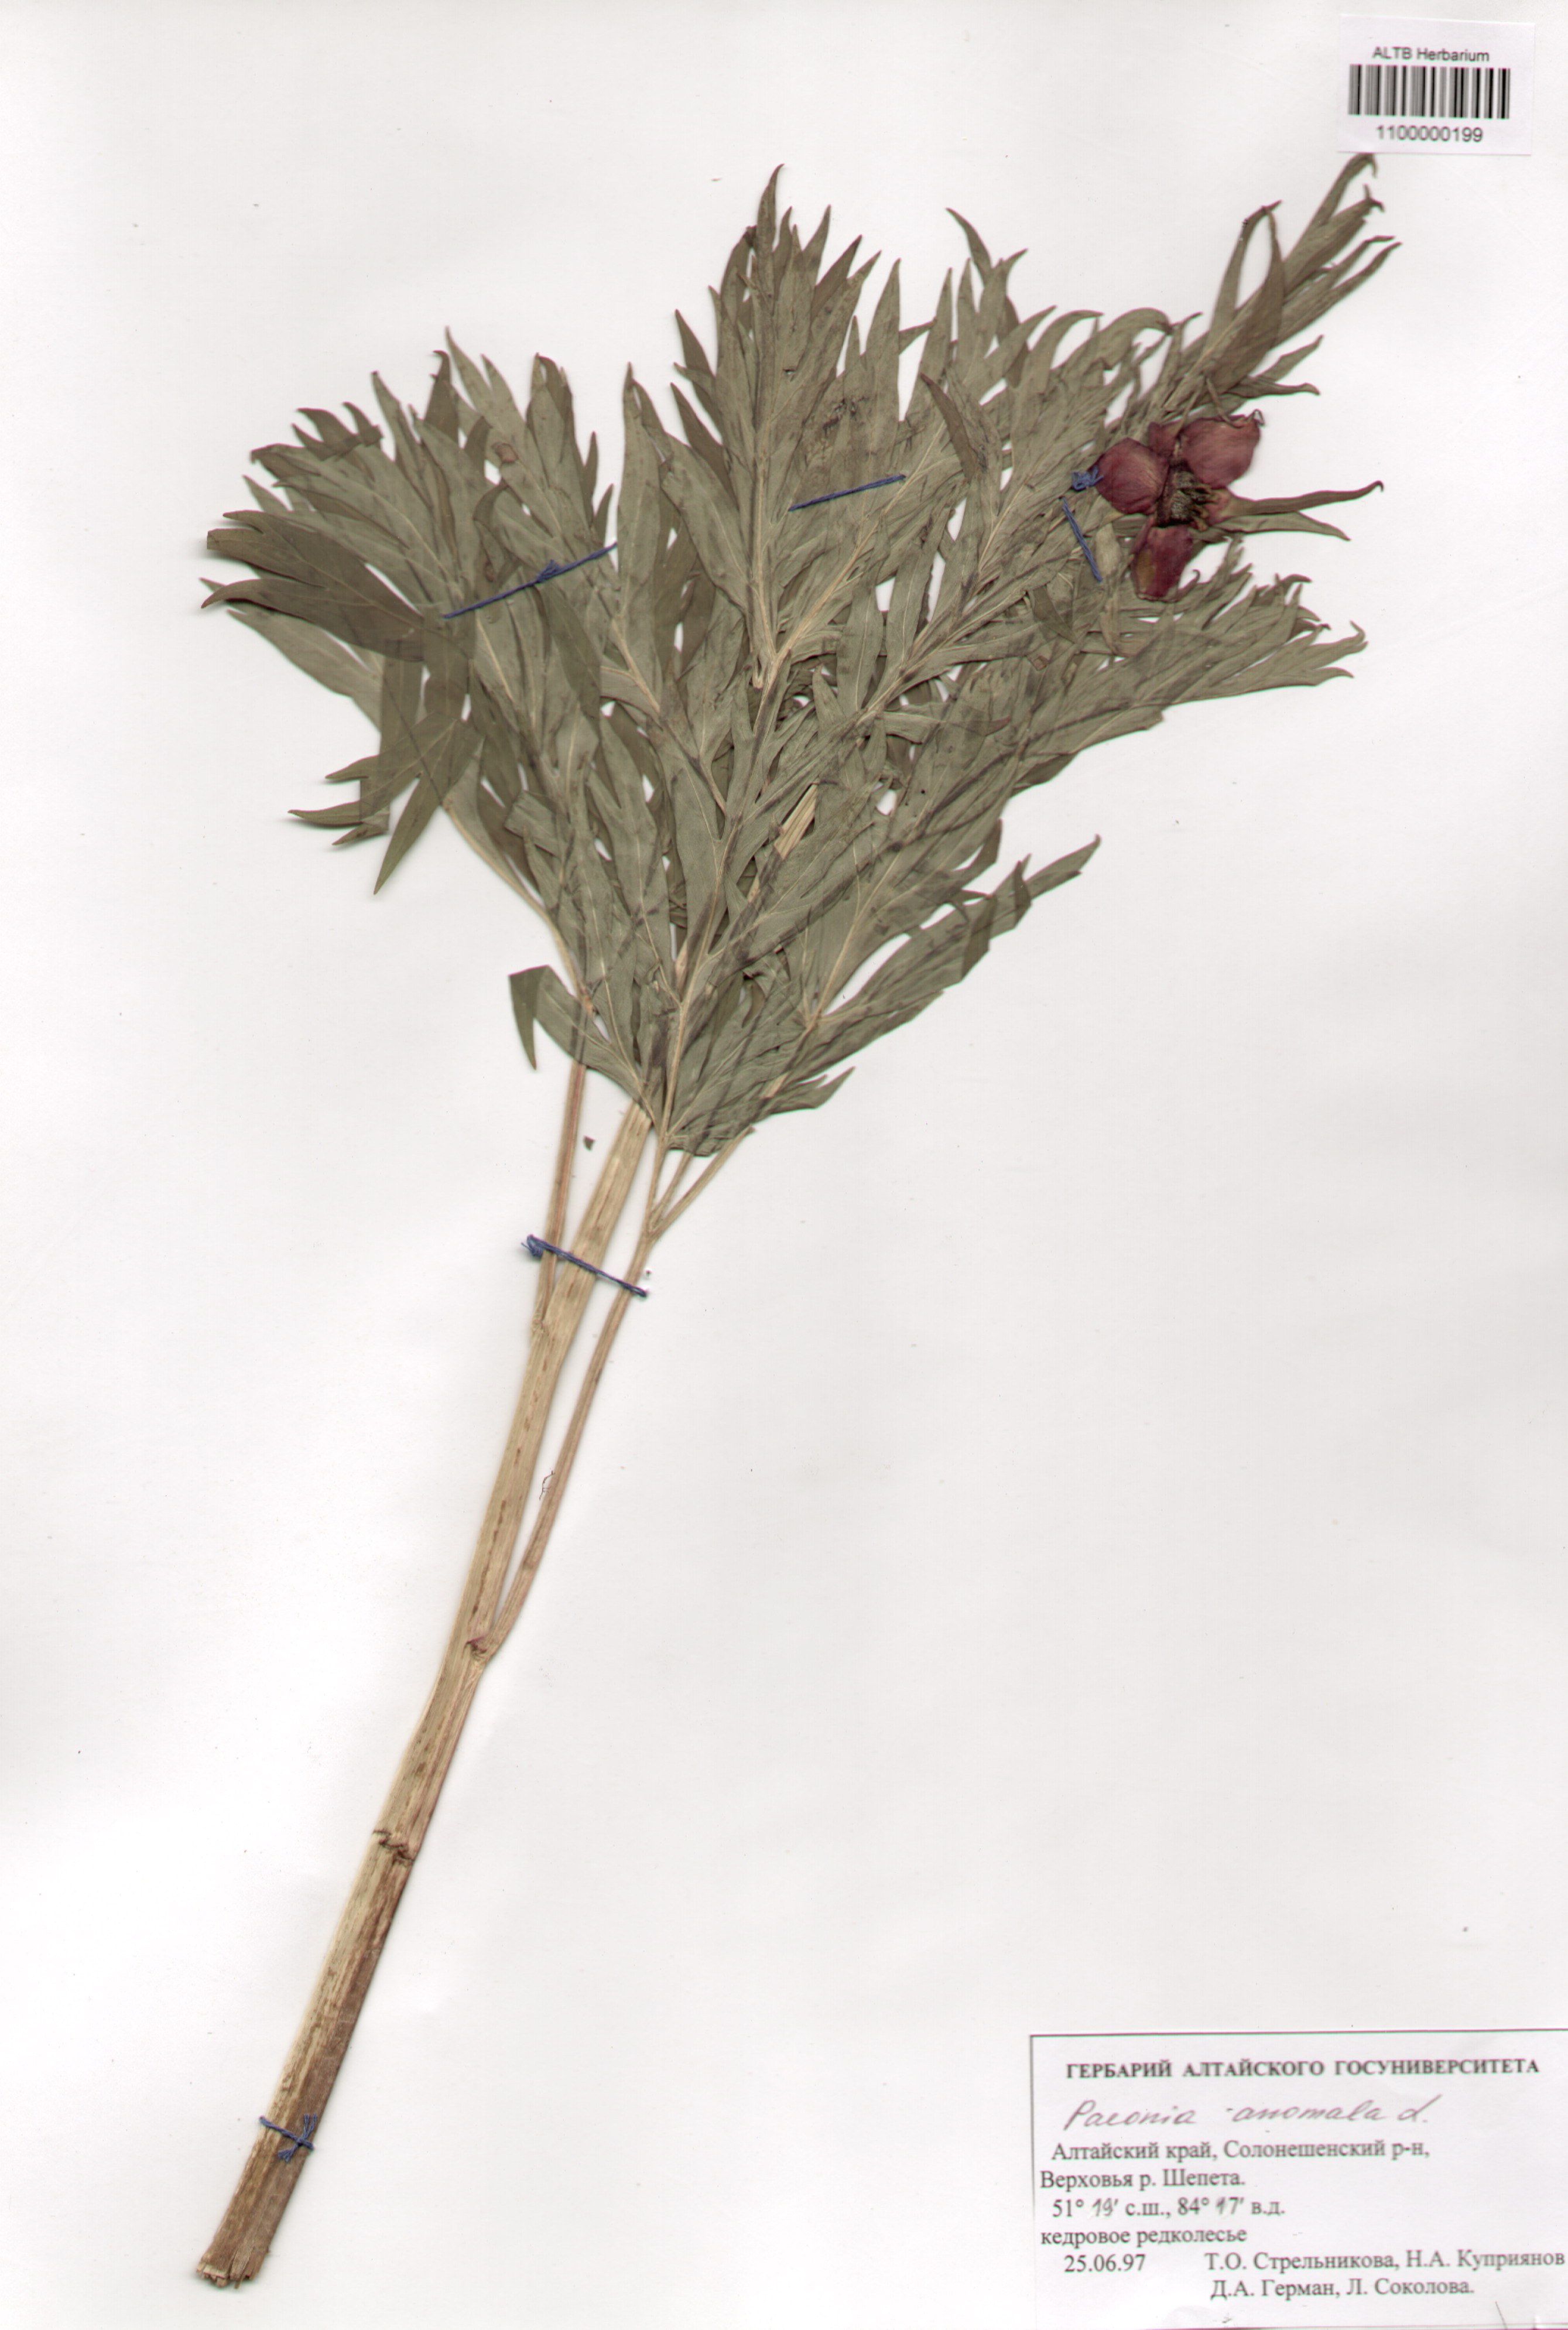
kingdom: Plantae
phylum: Tracheophyta
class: Magnoliopsida
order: Saxifragales
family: Paeoniaceae
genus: Paeonia
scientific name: Paeonia anomala
